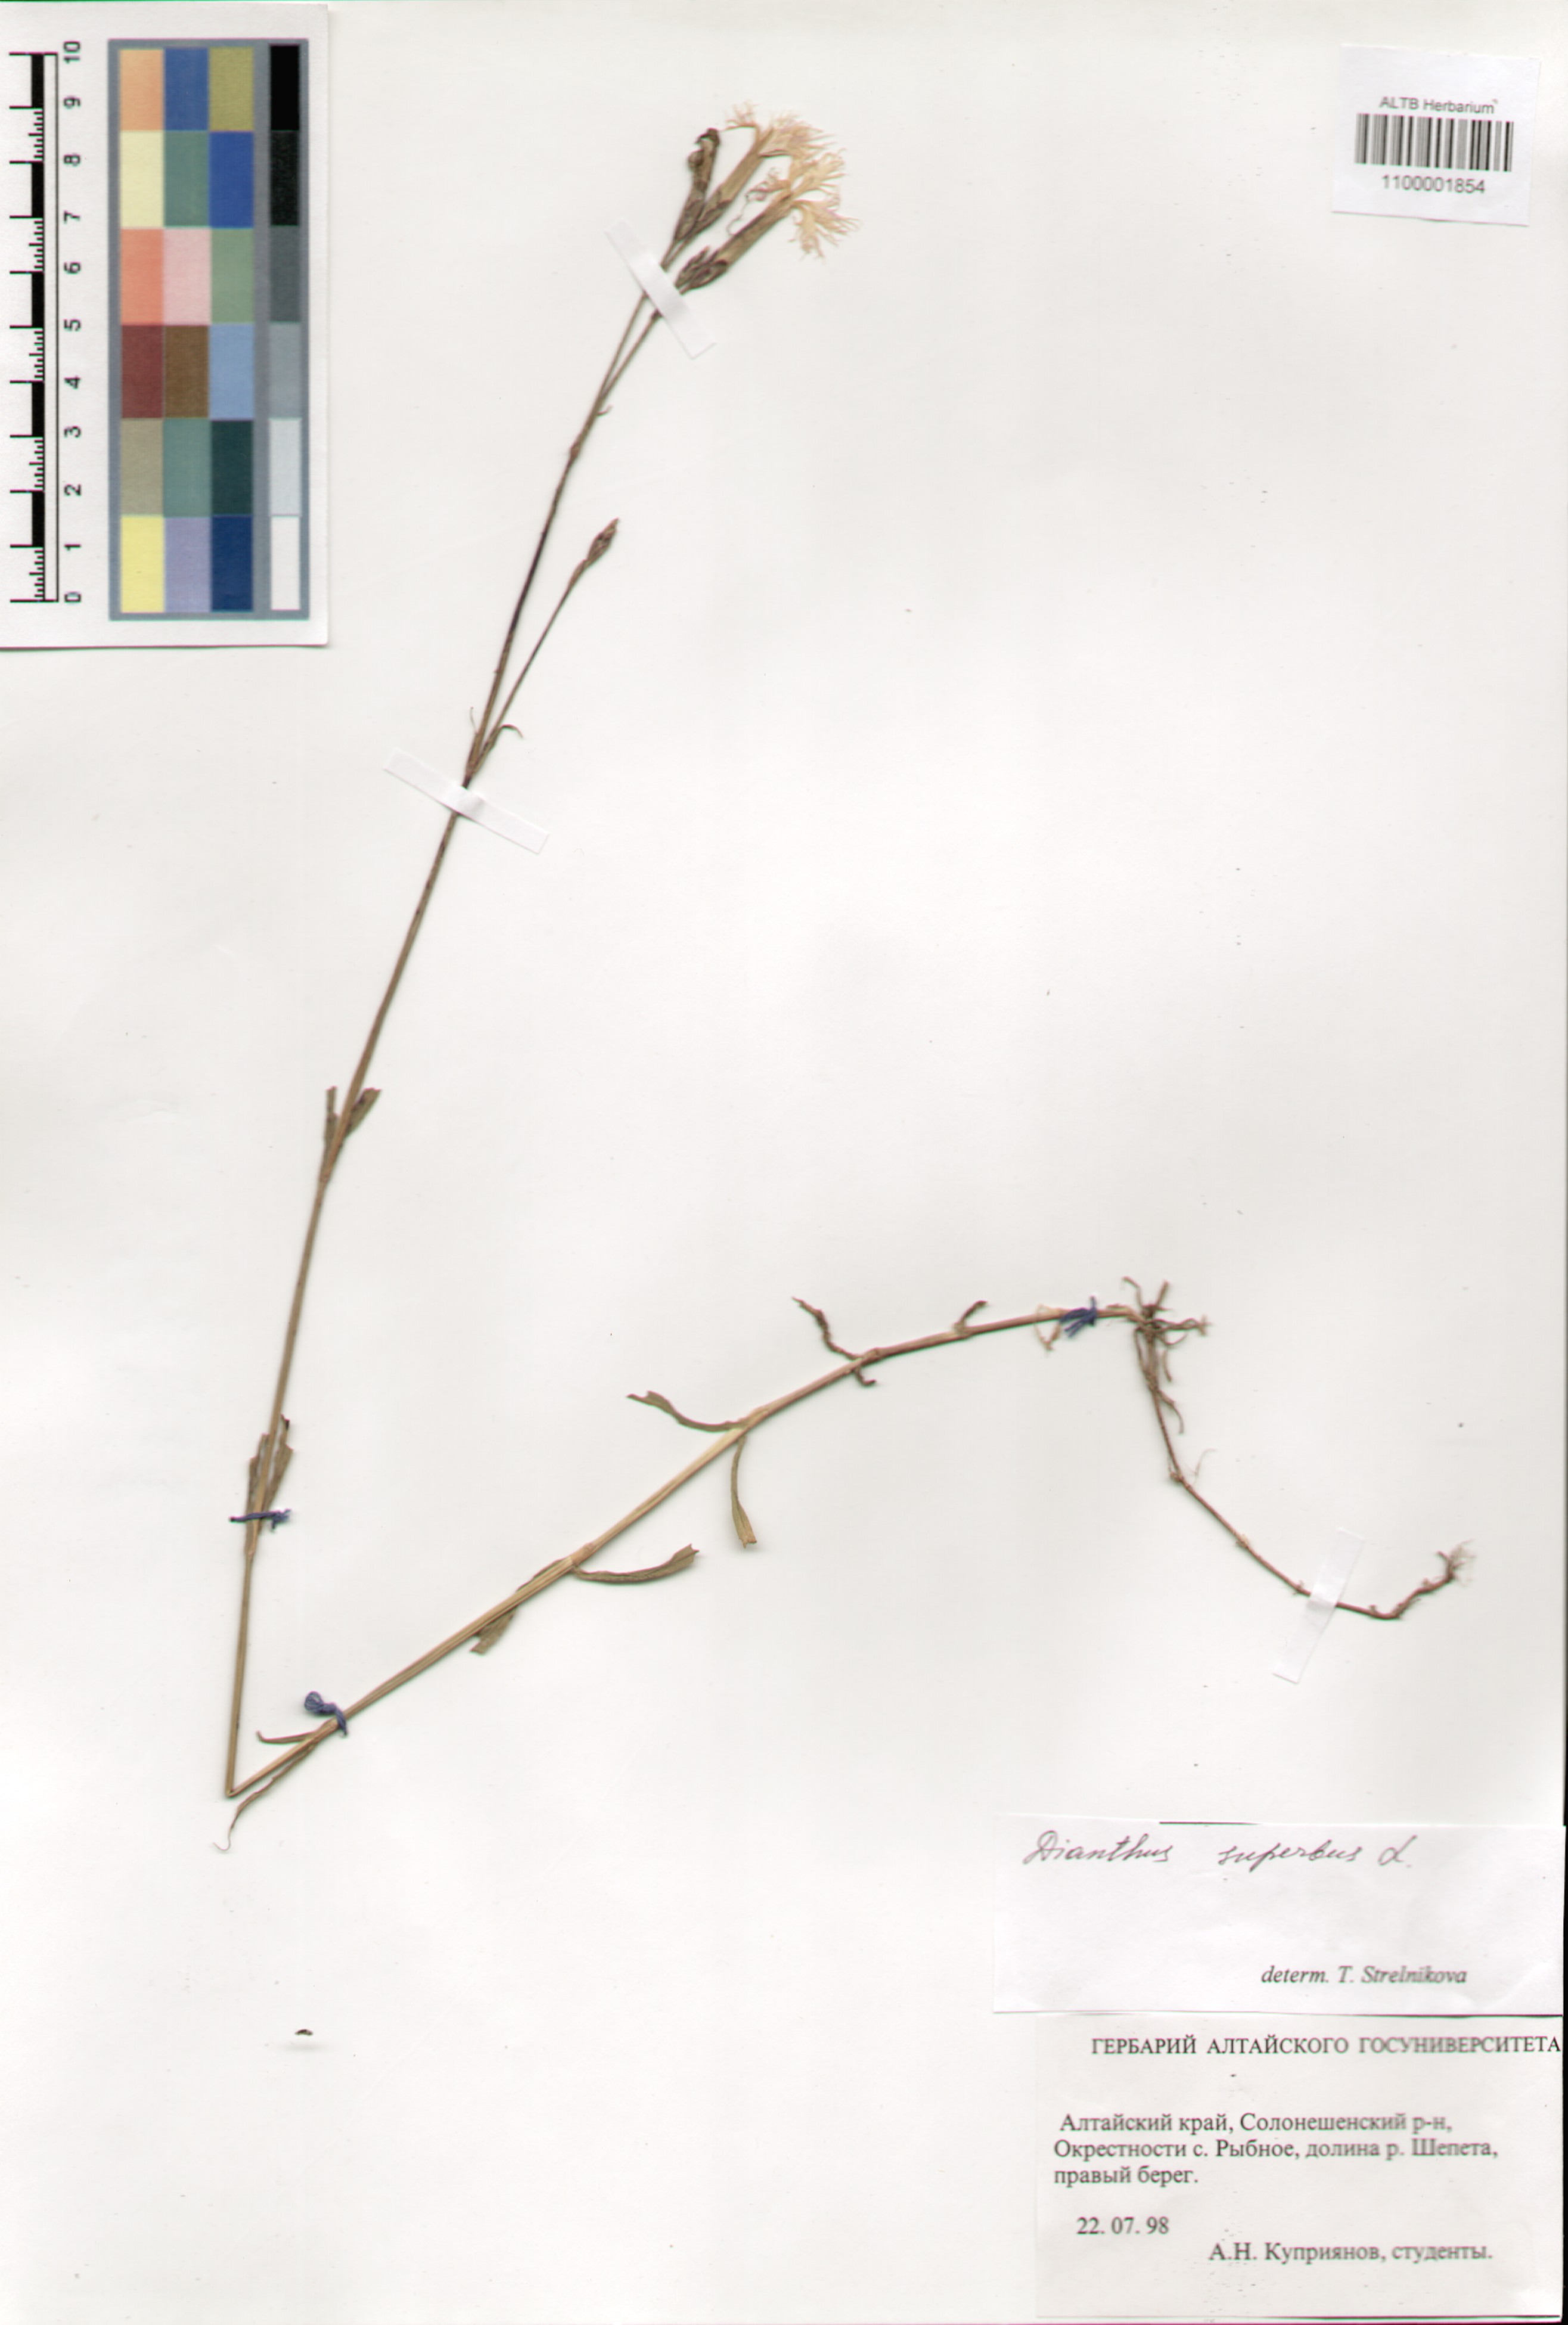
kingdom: Plantae
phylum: Tracheophyta
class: Magnoliopsida
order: Caryophyllales
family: Caryophyllaceae
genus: Dianthus
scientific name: Dianthus superbus
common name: Fringed pink
